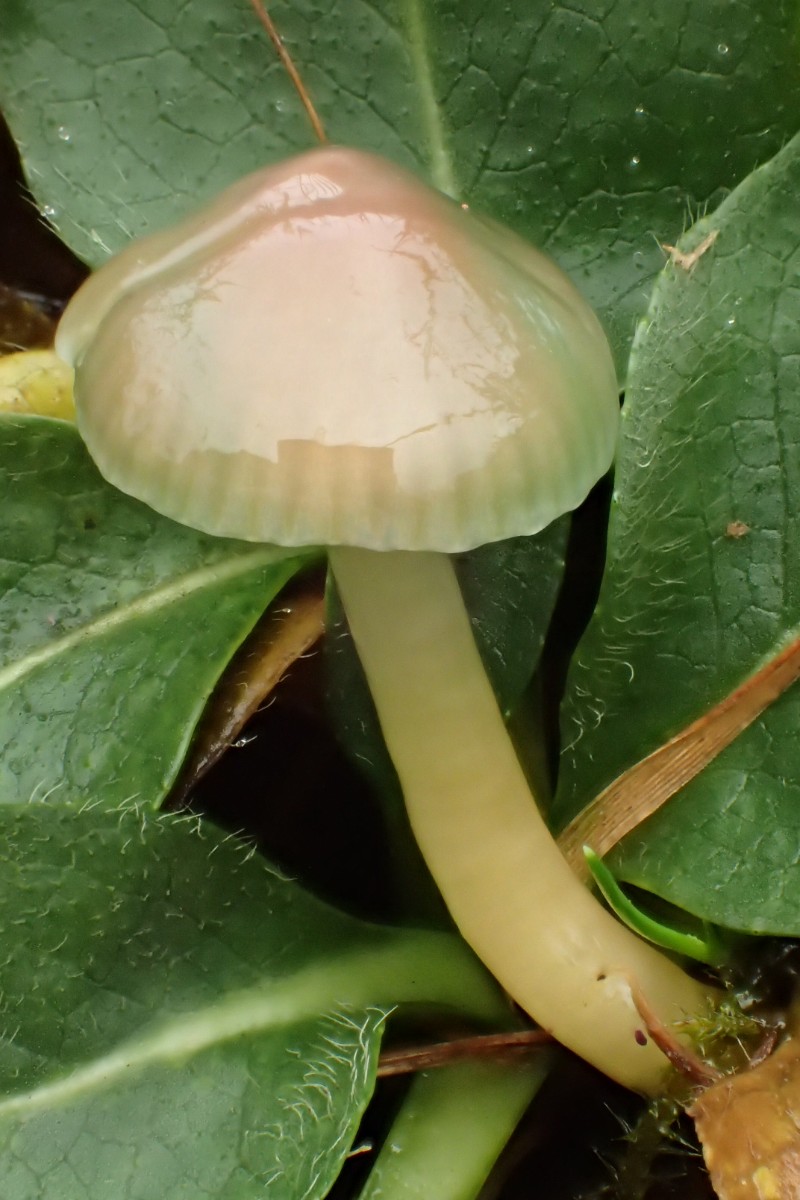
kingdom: Fungi
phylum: Basidiomycota
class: Agaricomycetes
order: Agaricales
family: Hygrophoraceae
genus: Gliophorus
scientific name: Gliophorus psittacinus
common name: papegøje-vokshat
